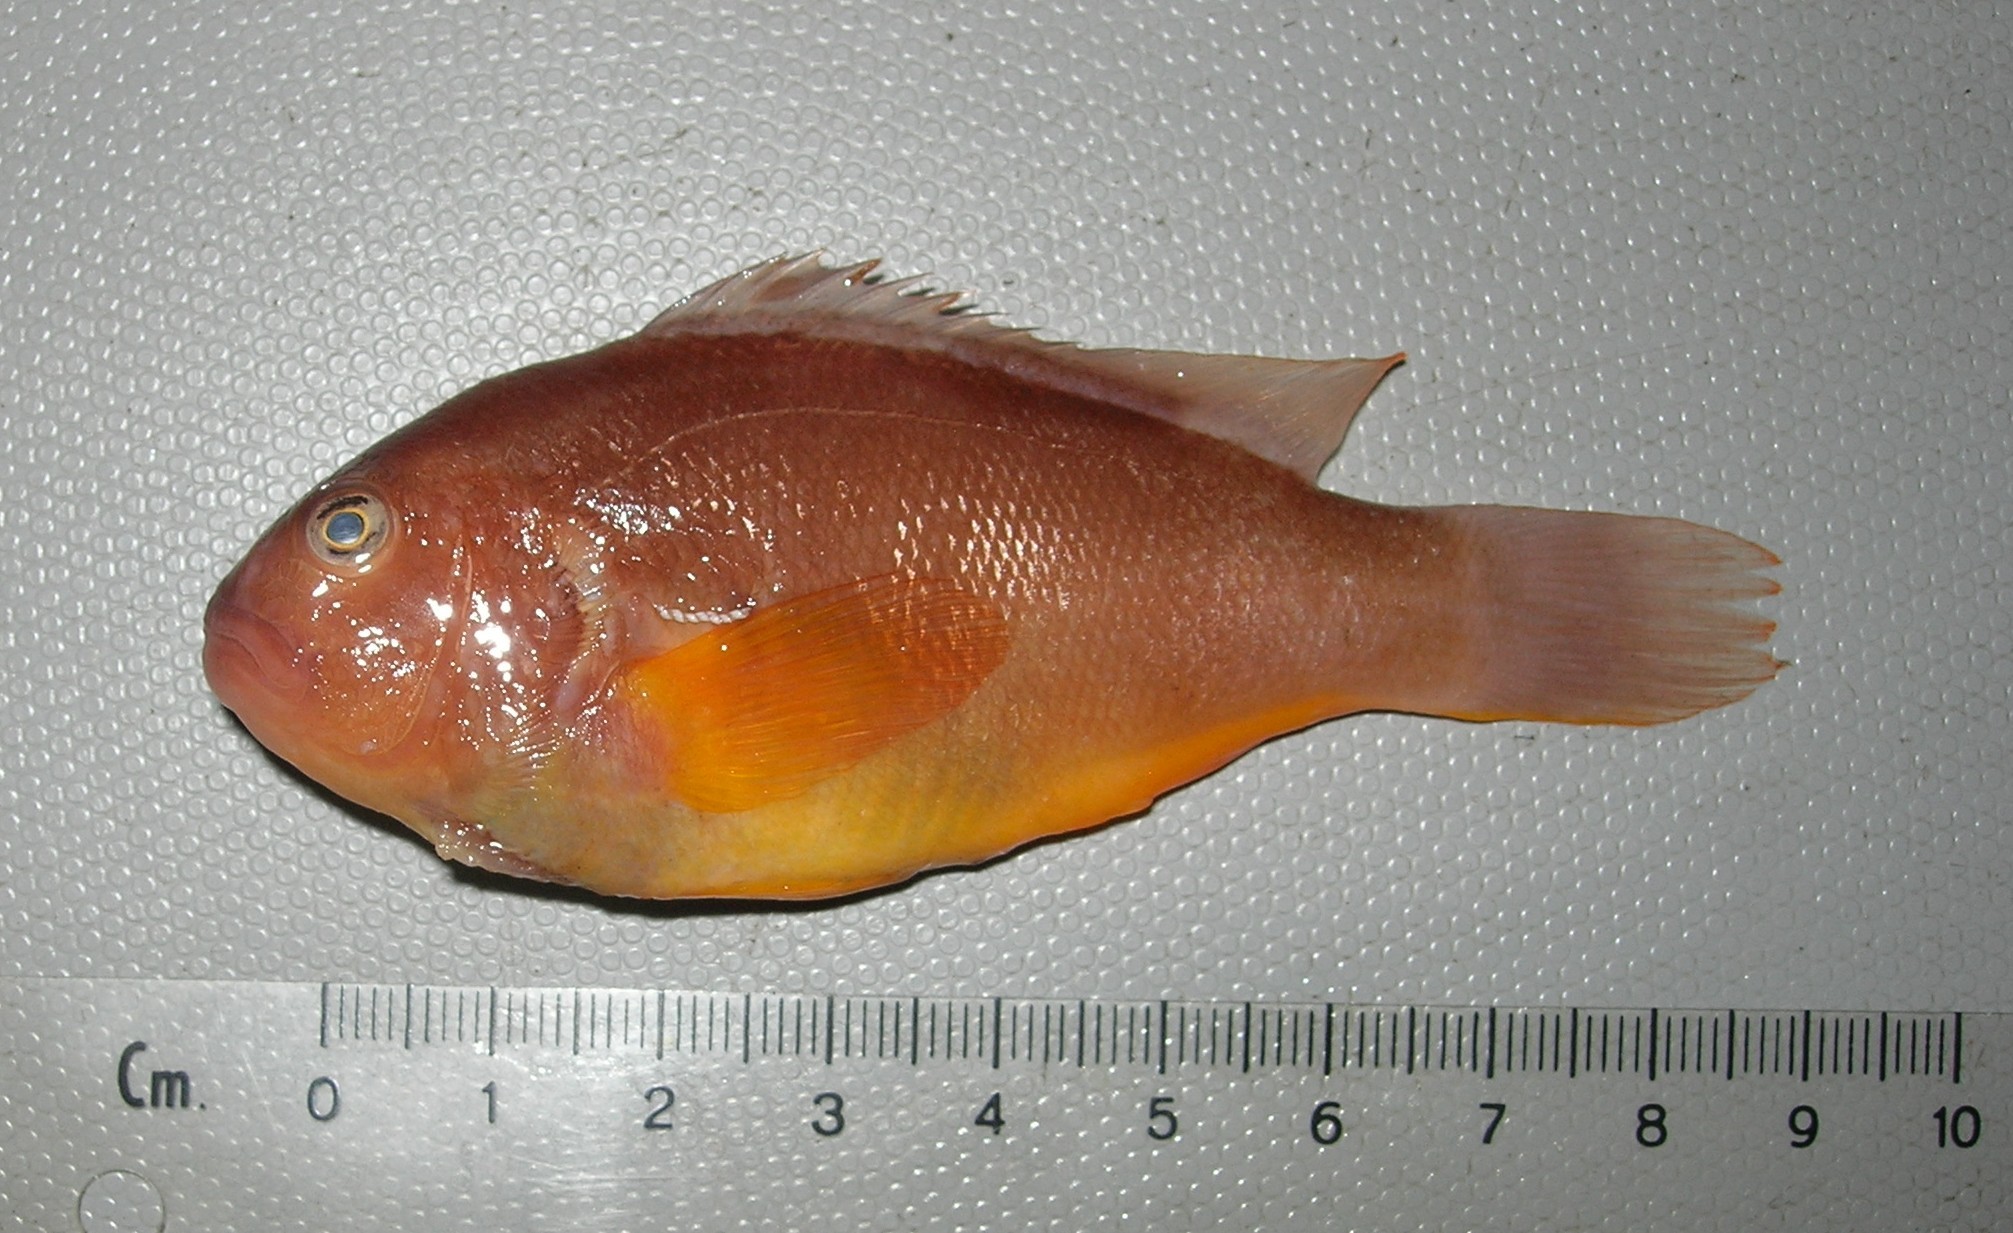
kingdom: Animalia
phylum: Chordata
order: Perciformes
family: Pomacentridae
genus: Amphiprion
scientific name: Amphiprion akallopisos
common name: Skunk clownfish
